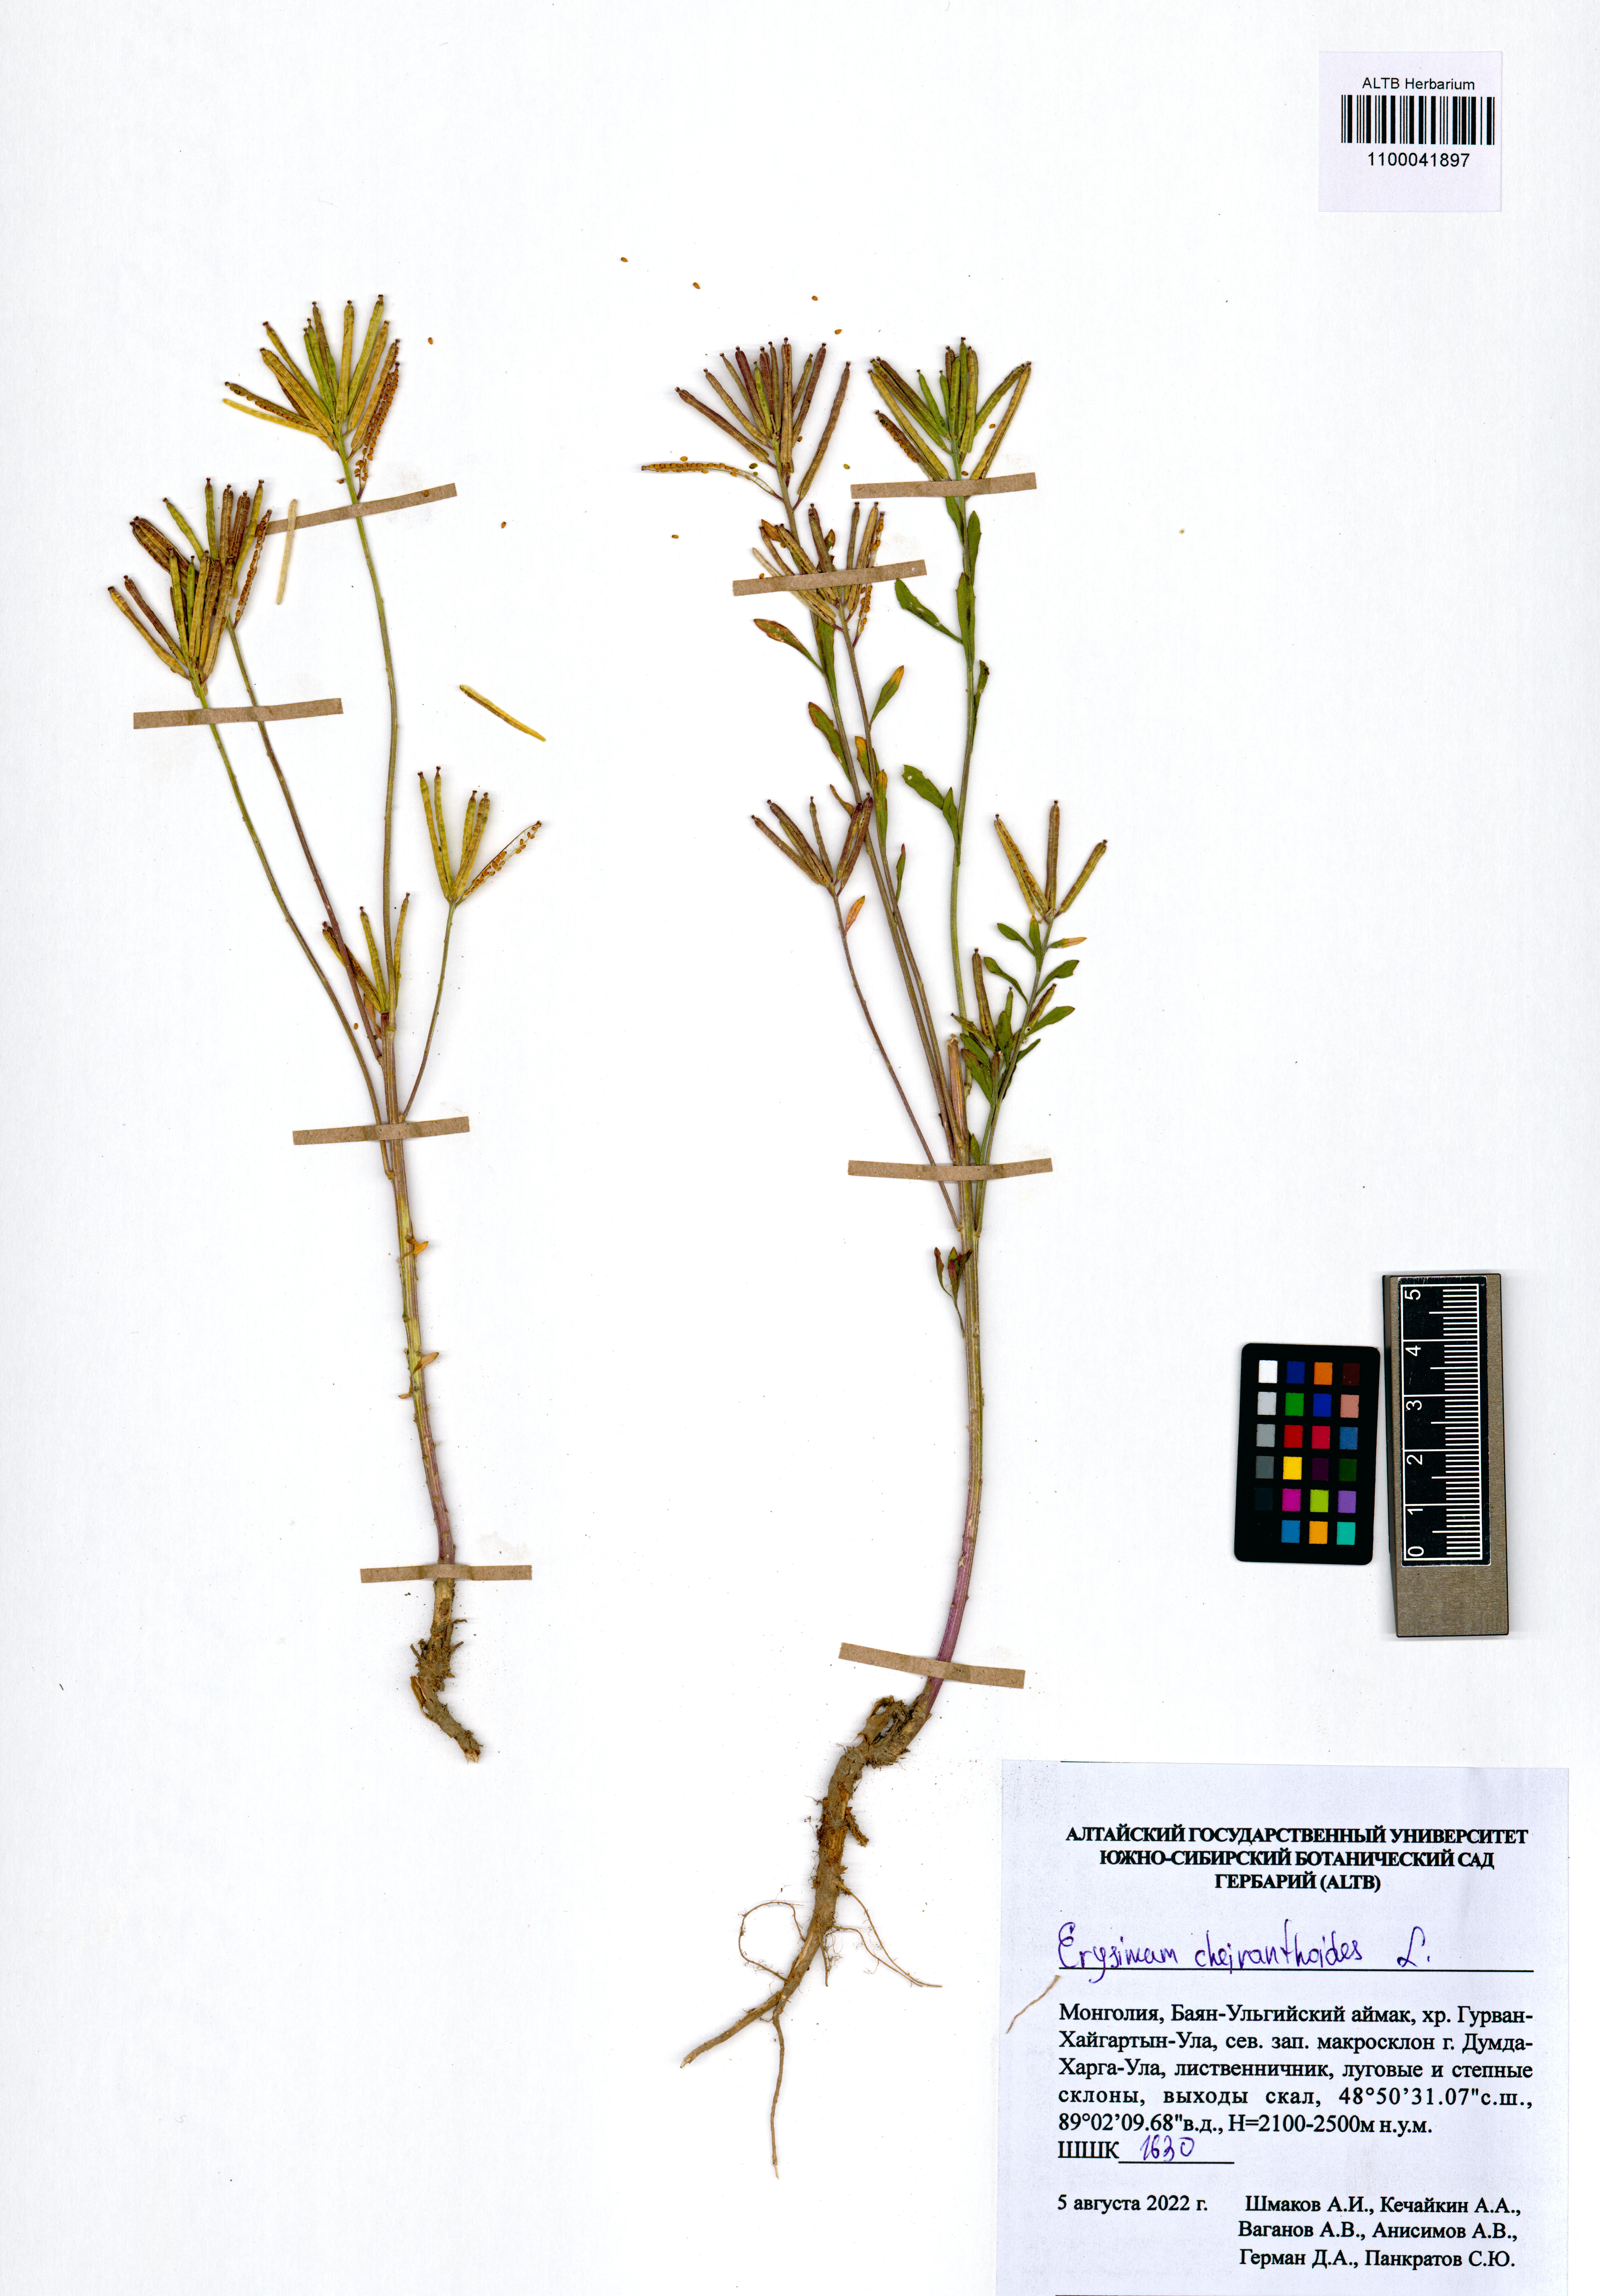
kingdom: Plantae
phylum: Tracheophyta
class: Magnoliopsida
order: Brassicales
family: Brassicaceae
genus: Erysimum
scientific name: Erysimum cheiranthoides
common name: Treacle mustard
